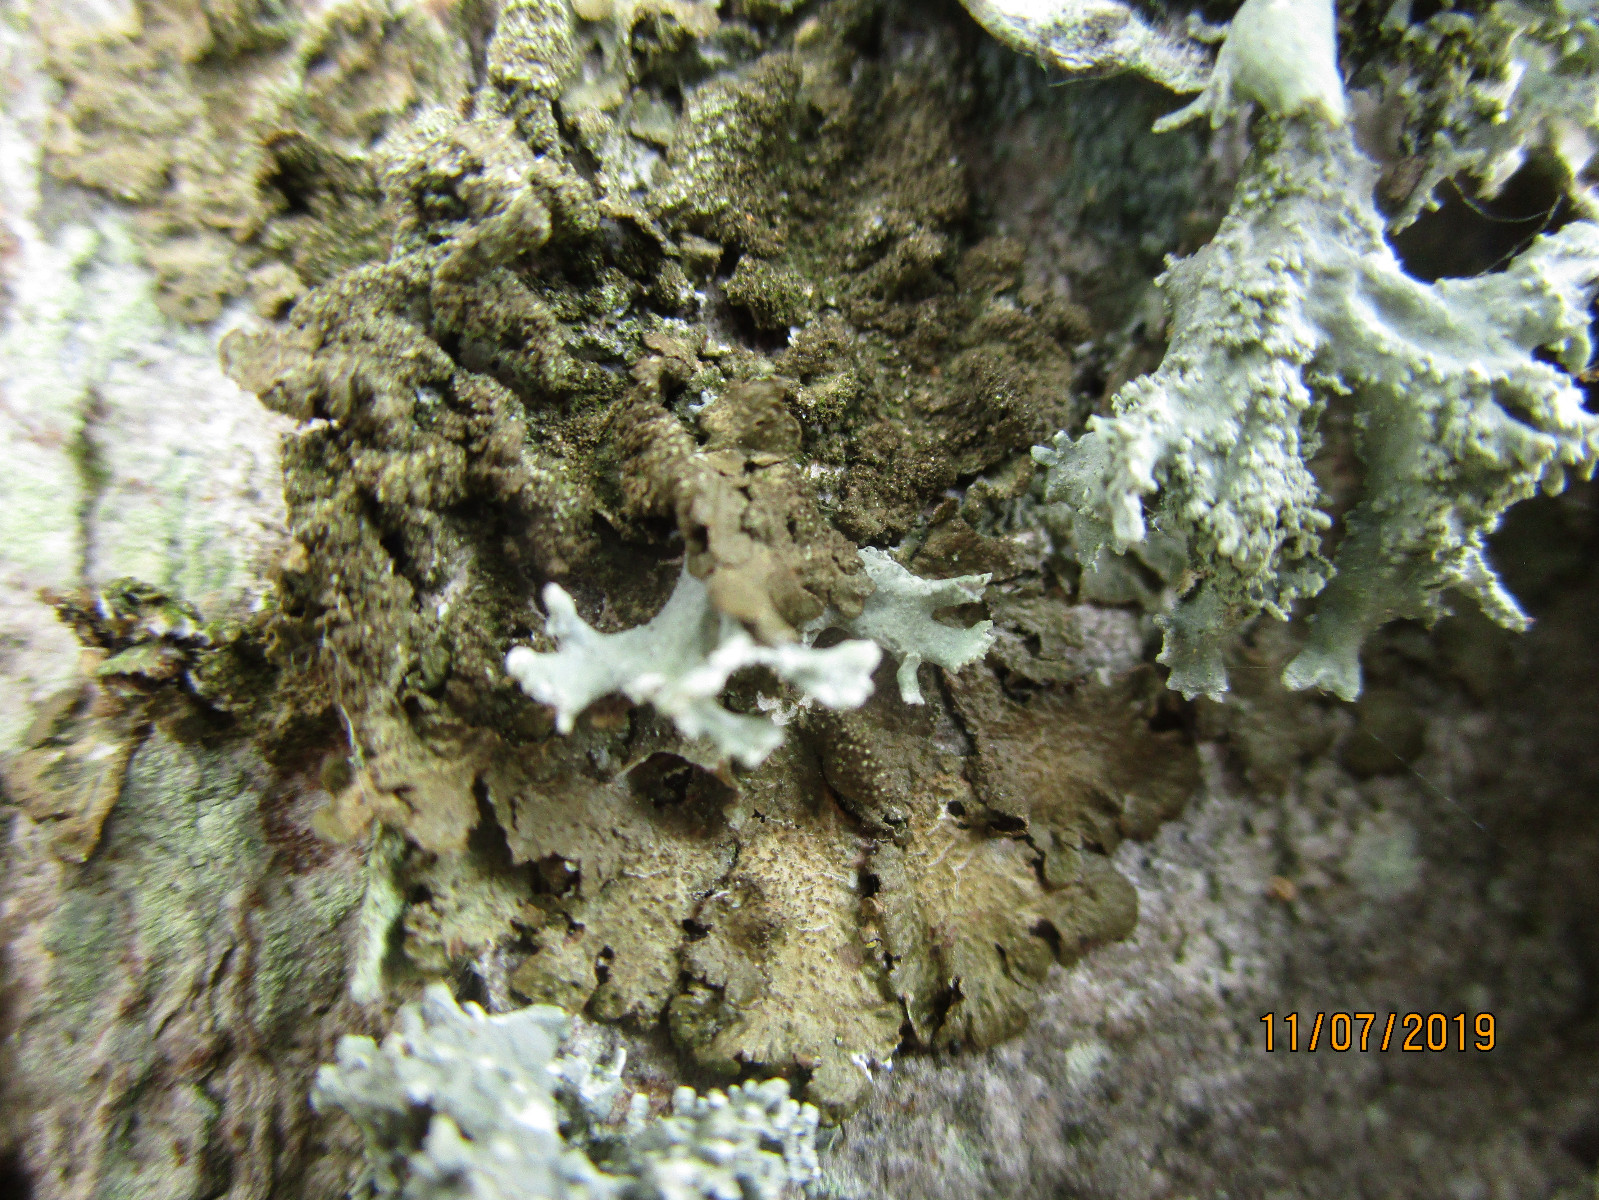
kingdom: Fungi
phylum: Ascomycota
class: Lecanoromycetes
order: Lecanorales
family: Parmeliaceae
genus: Melanelixia
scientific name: Melanelixia subaurifera
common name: guldpudret skållav
